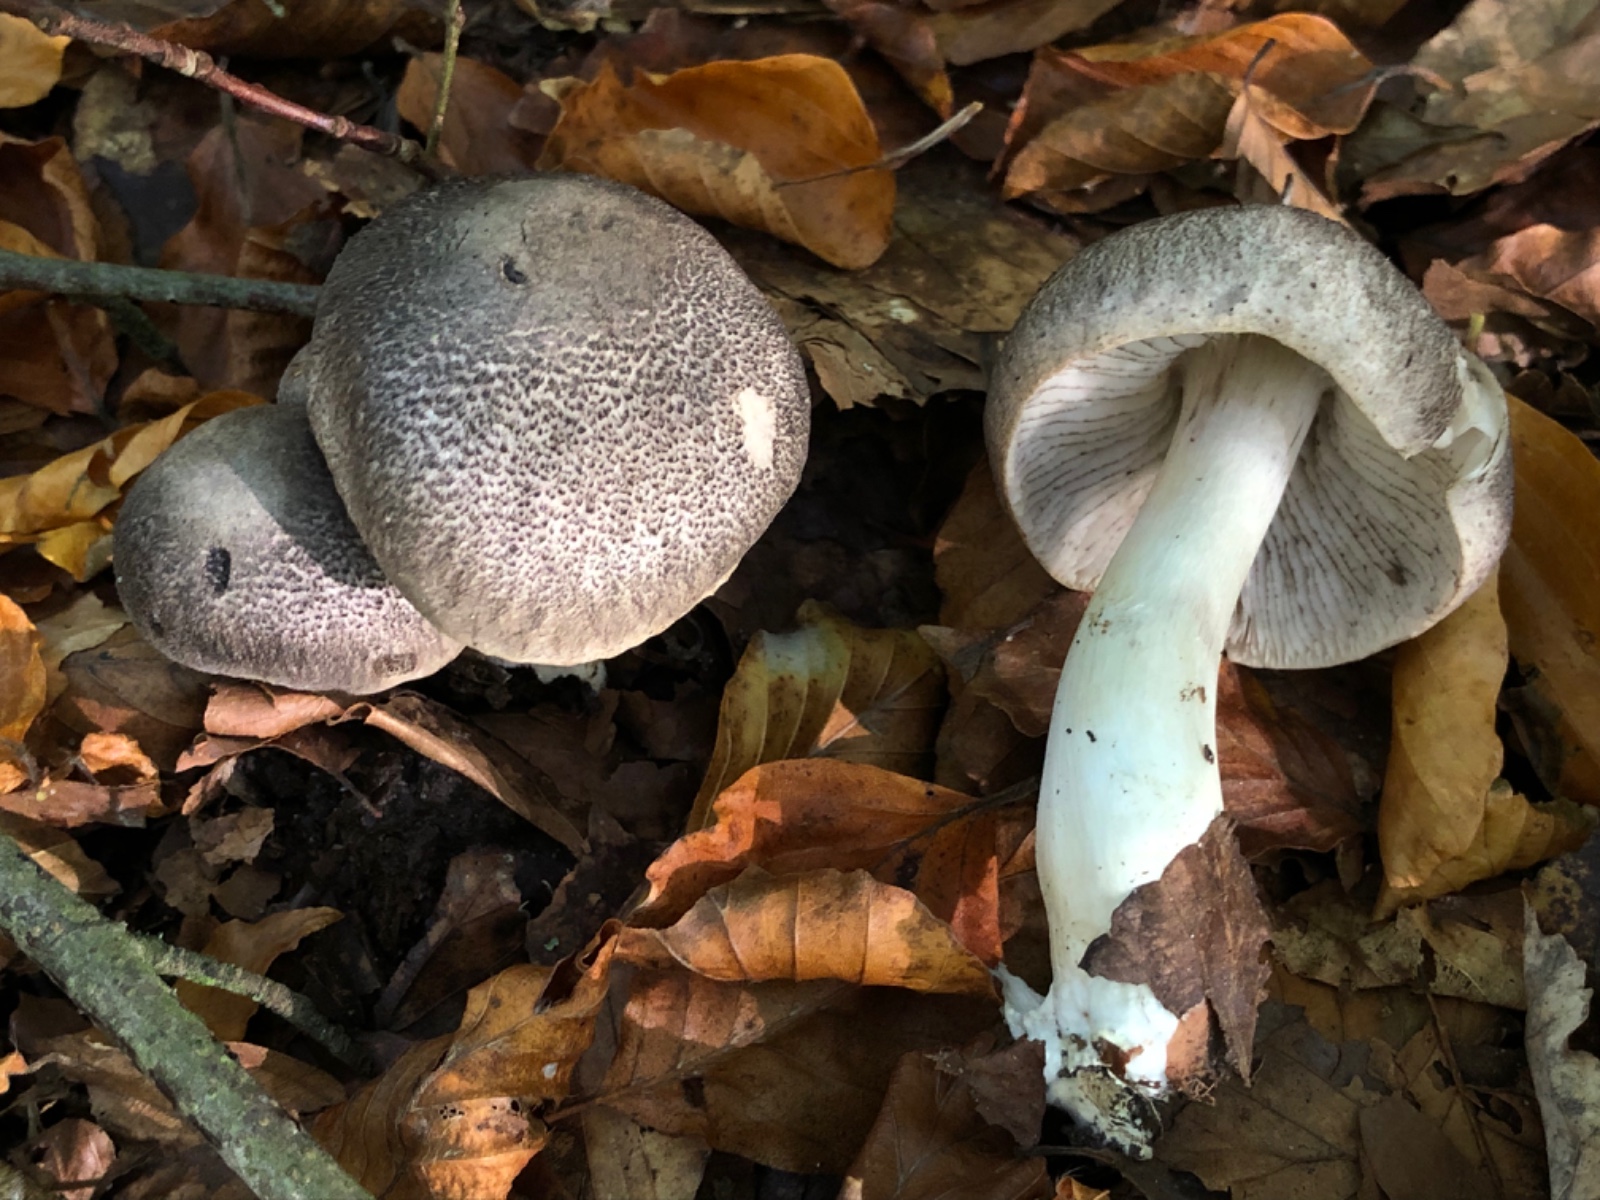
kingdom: Fungi
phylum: Basidiomycota
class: Agaricomycetes
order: Agaricales
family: Tricholomataceae
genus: Tricholoma
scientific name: Tricholoma orirubens
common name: rødbladet ridderhat
